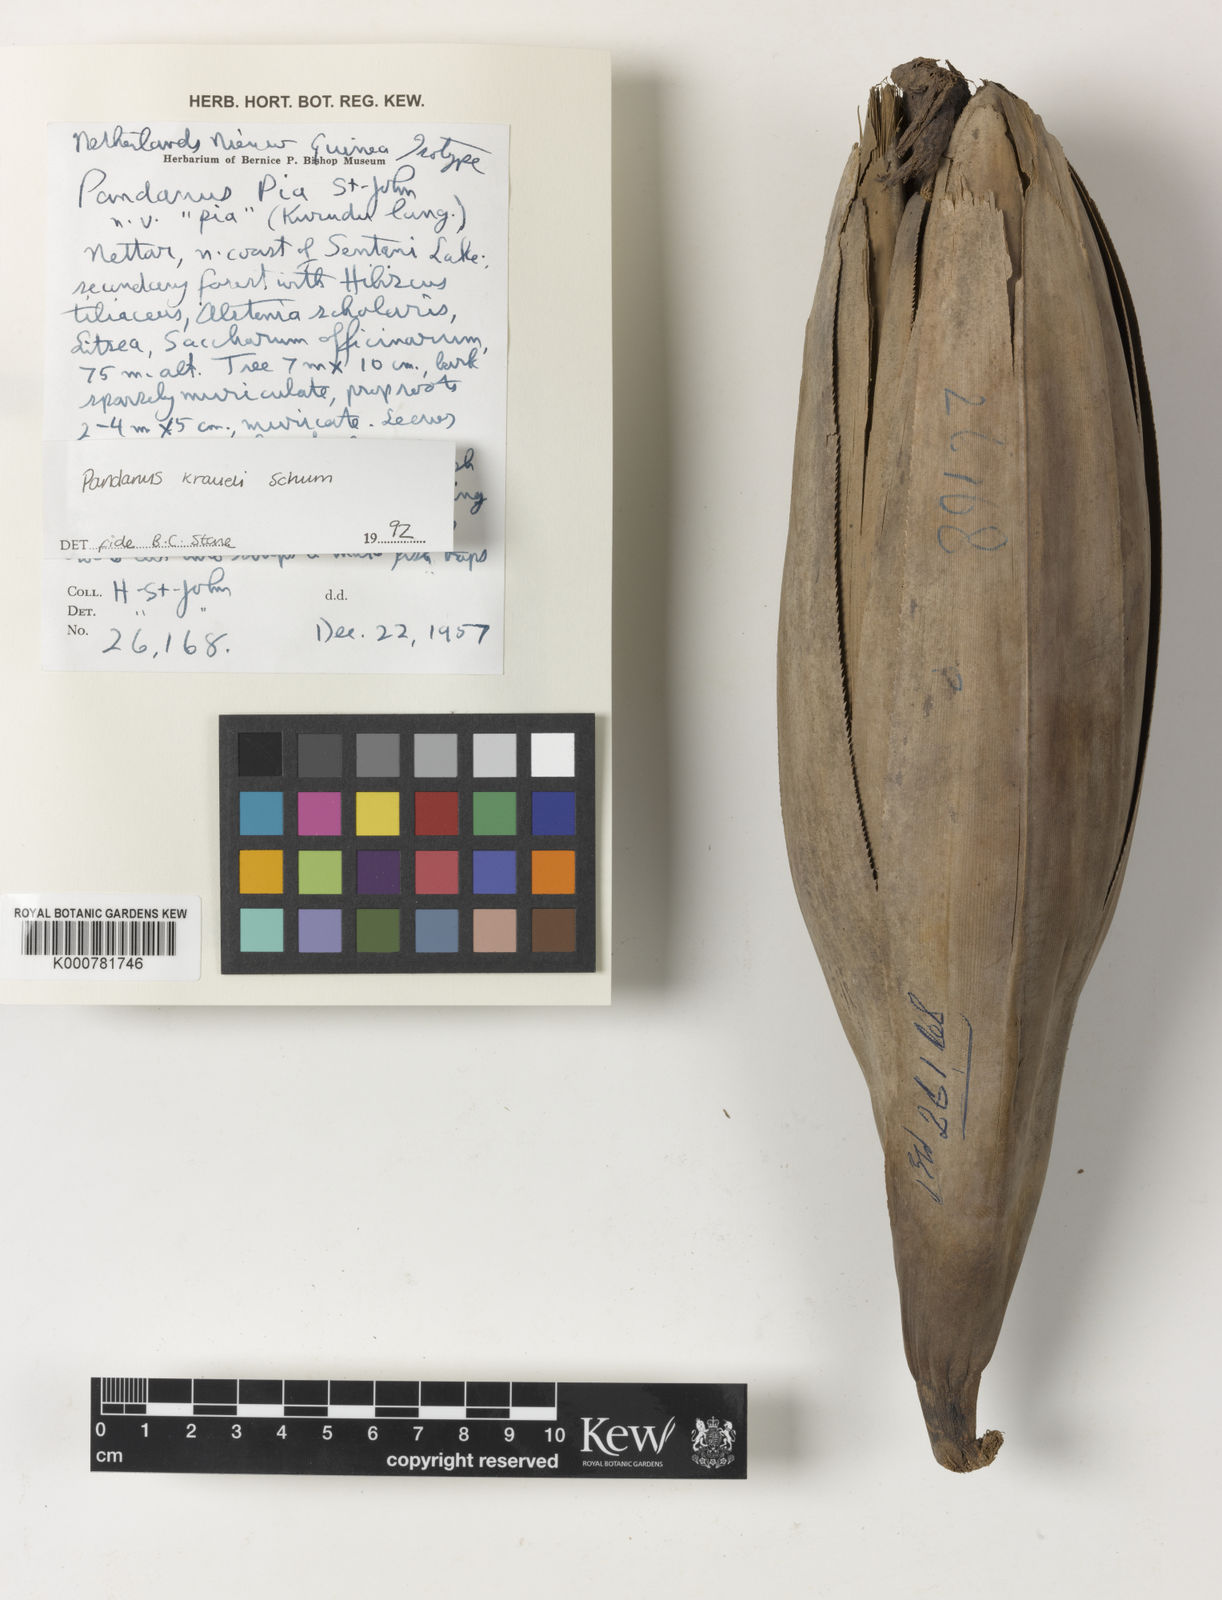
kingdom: Plantae
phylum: Tracheophyta
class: Liliopsida
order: Pandanales
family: Pandanaceae
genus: Pandanus
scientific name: Pandanus krauelianus
